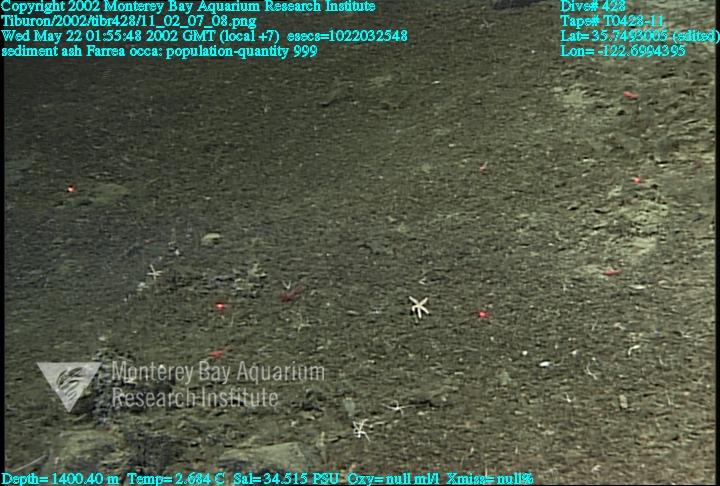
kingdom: Animalia
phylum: Porifera
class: Hexactinellida
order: Sceptrulophora
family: Farreidae
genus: Farrea
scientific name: Farrea occa
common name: Reversed glass sponge
